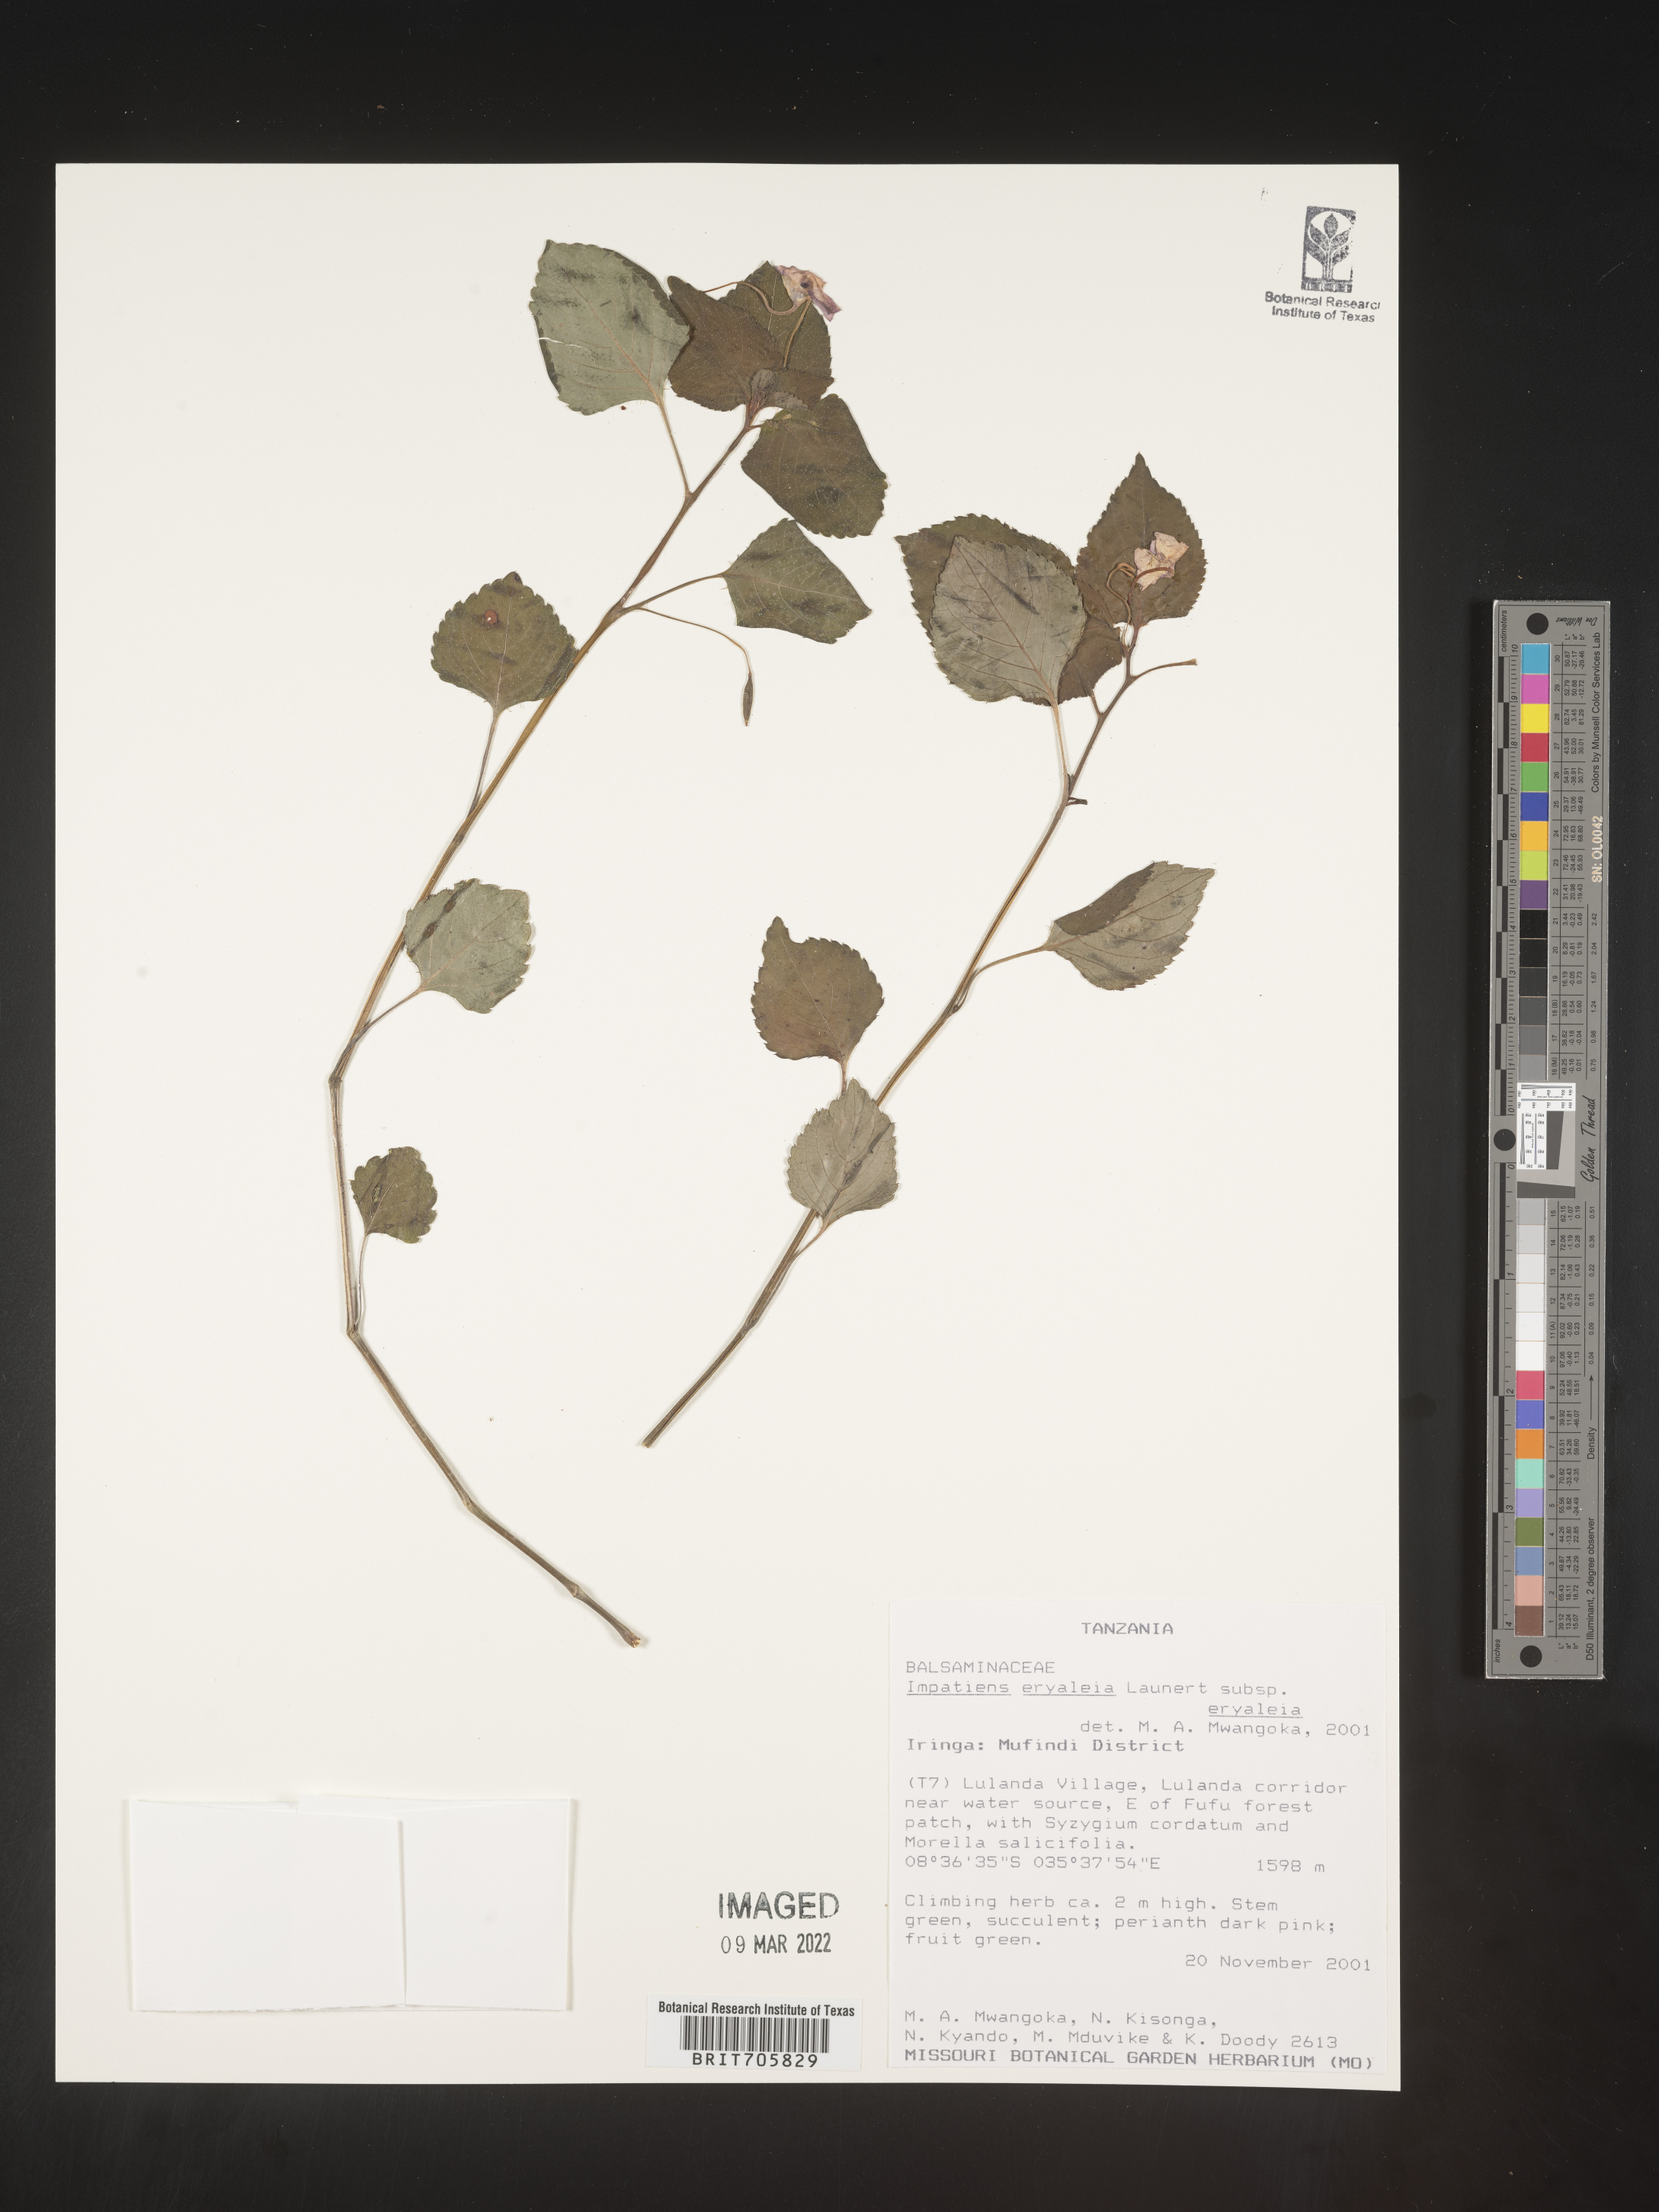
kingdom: Plantae
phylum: Tracheophyta
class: Magnoliopsida
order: Ericales
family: Balsaminaceae
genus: Impatiens
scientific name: Impatiens
